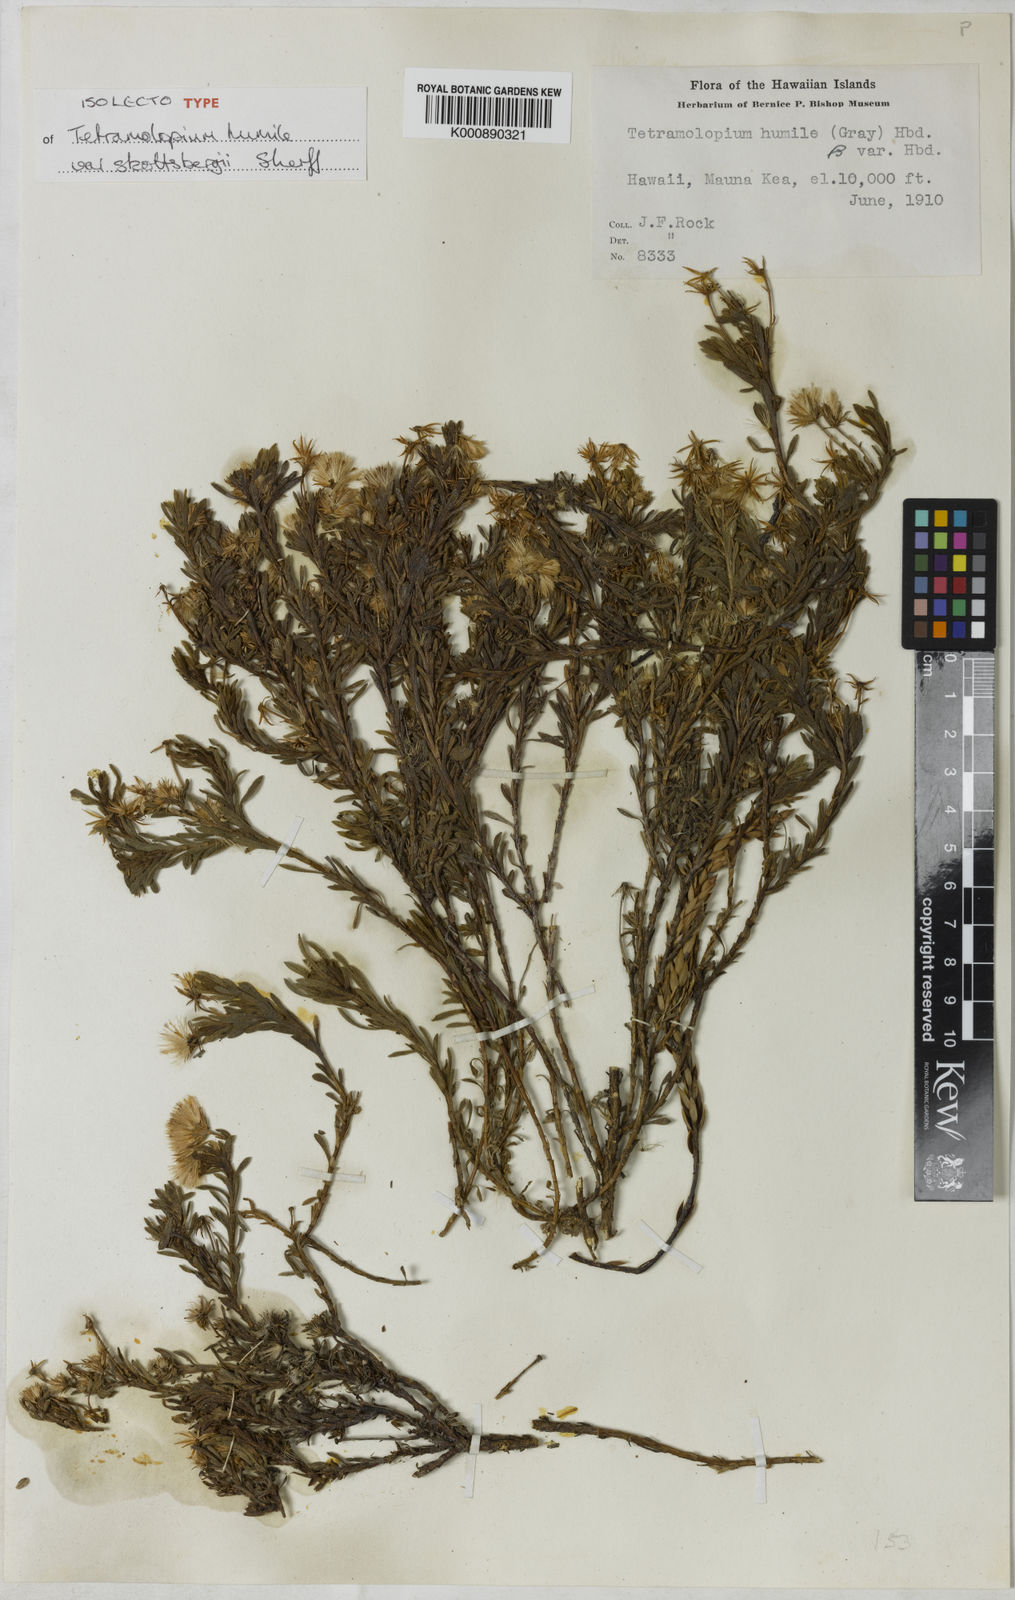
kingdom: Plantae
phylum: Tracheophyta
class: Magnoliopsida
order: Asterales
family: Asteraceae
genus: Tetramolopium
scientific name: Tetramolopium humile
